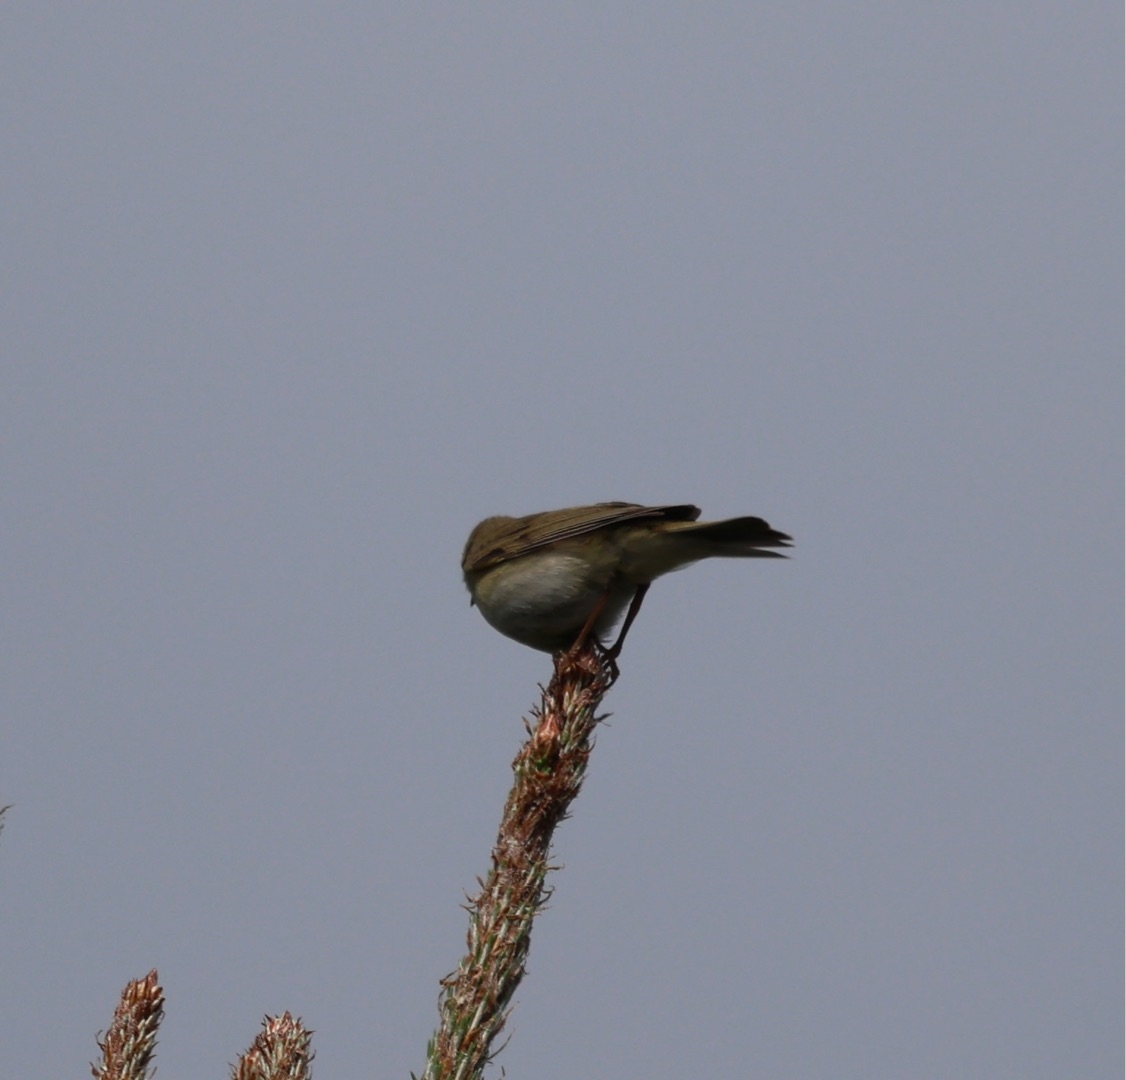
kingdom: Animalia
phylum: Chordata
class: Aves
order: Passeriformes
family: Phylloscopidae
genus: Phylloscopus
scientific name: Phylloscopus trochilus
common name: Løvsanger
